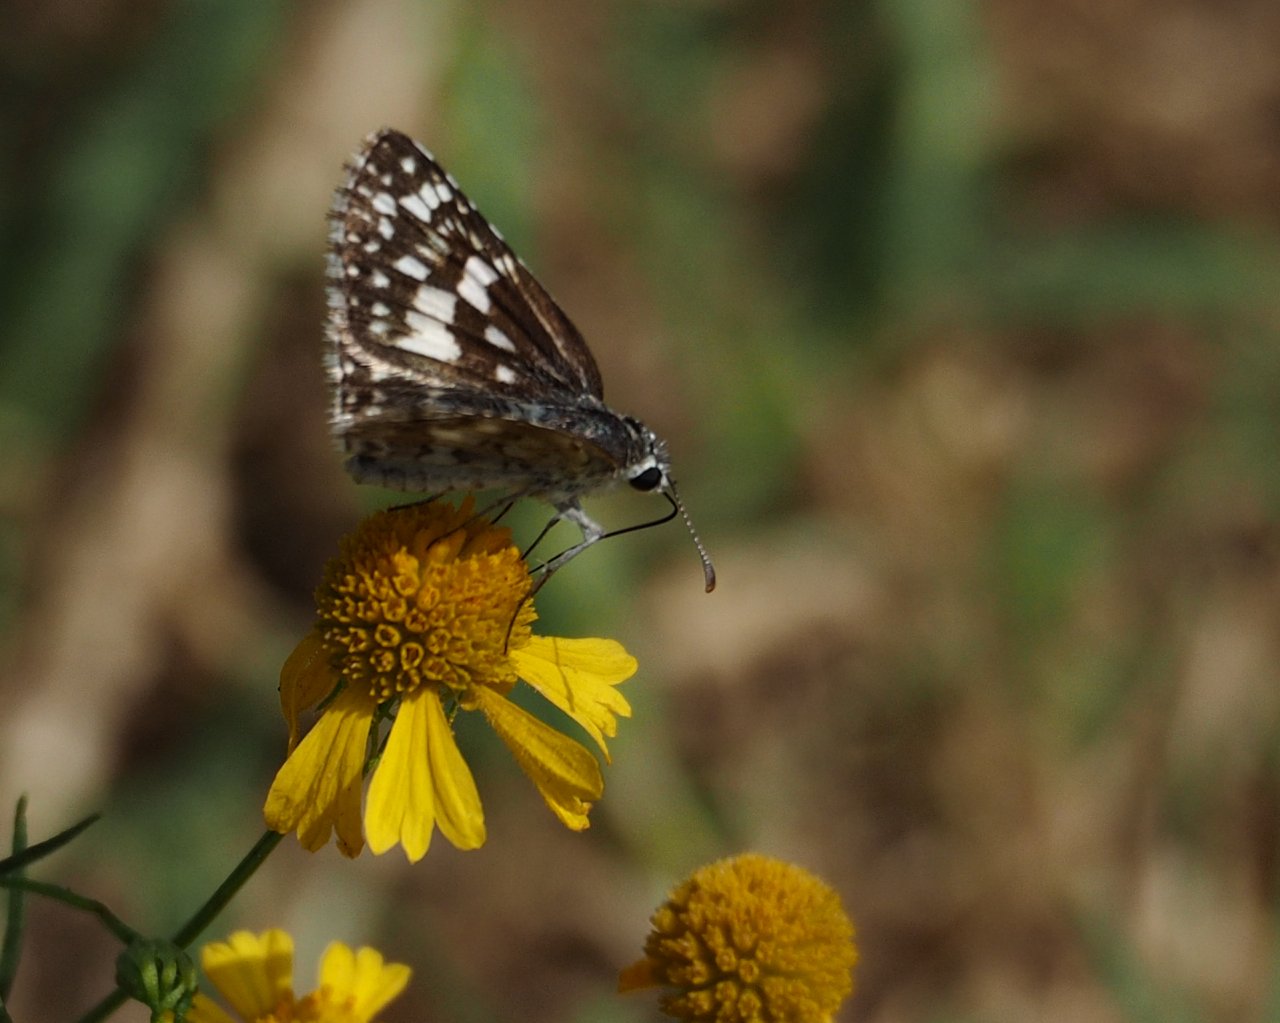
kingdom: Animalia
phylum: Arthropoda
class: Insecta
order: Lepidoptera
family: Hesperiidae
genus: Pyrgus
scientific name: Pyrgus communis
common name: Common Checkered-Skipper
